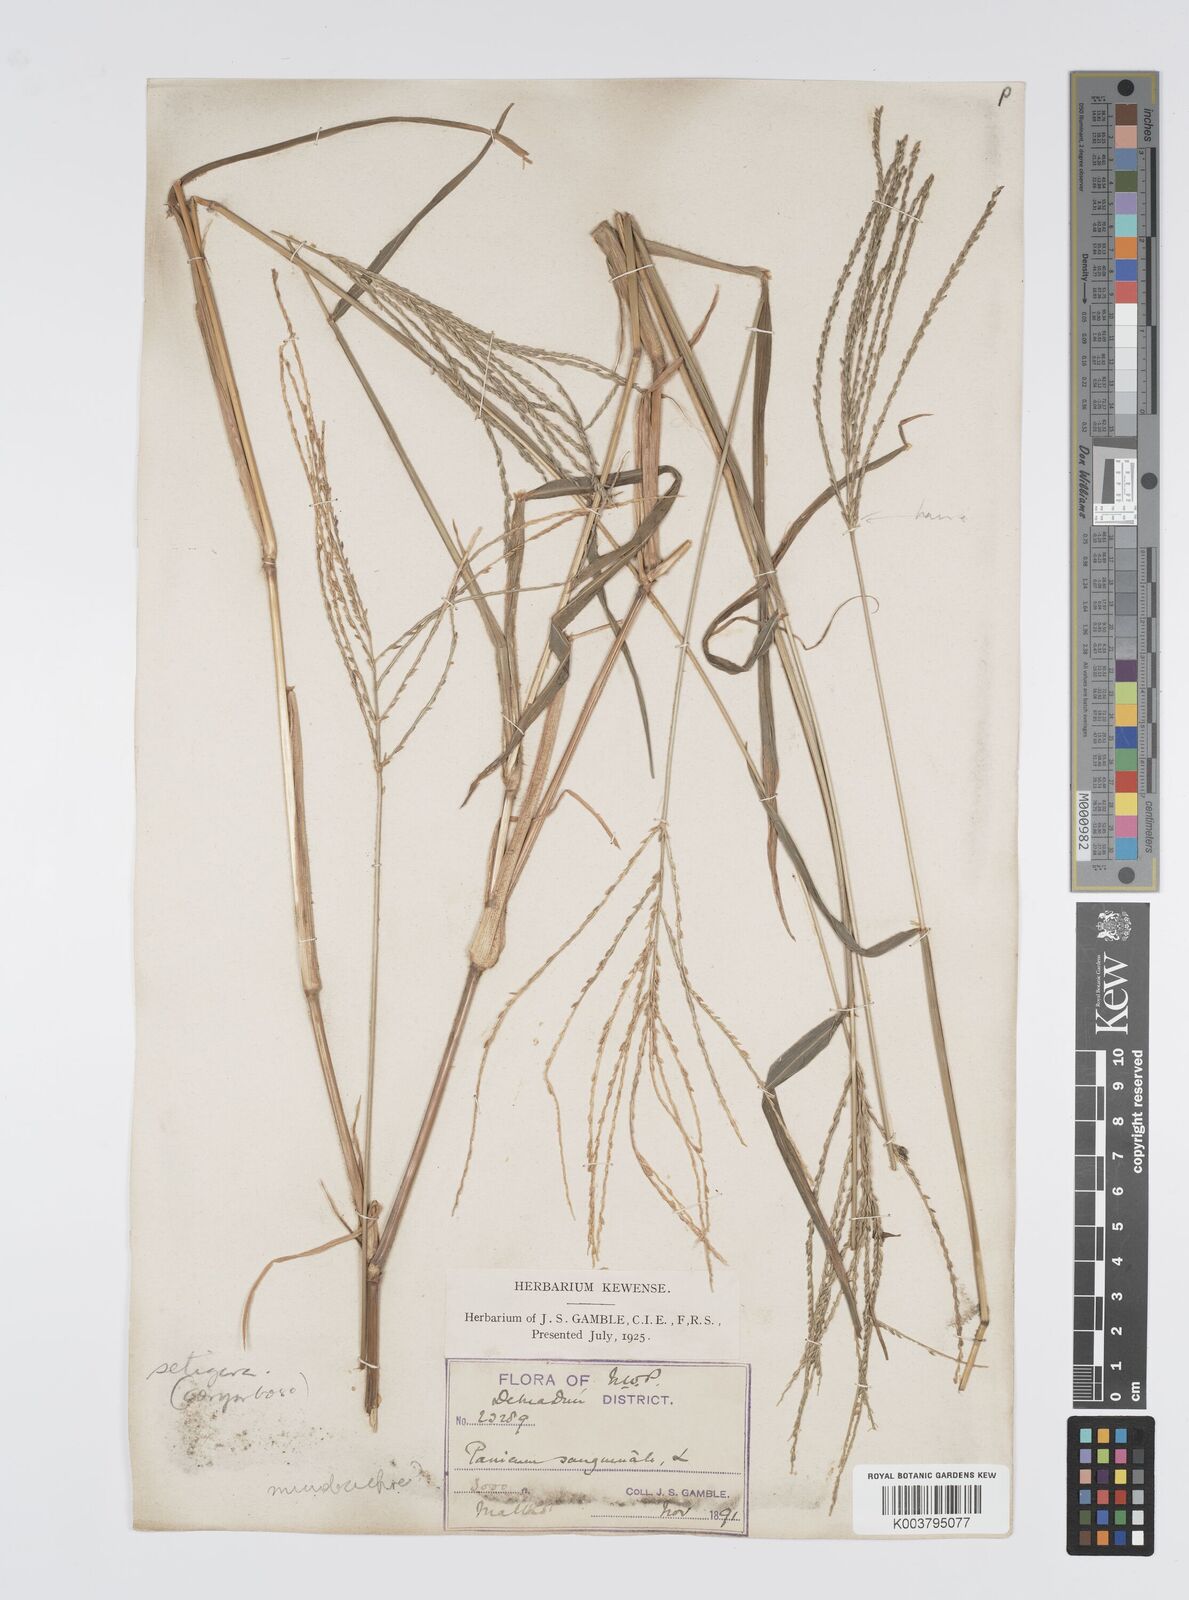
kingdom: Plantae
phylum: Tracheophyta
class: Liliopsida
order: Poales
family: Poaceae
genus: Digitaria
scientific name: Digitaria setigera
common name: East indian crabgrass
